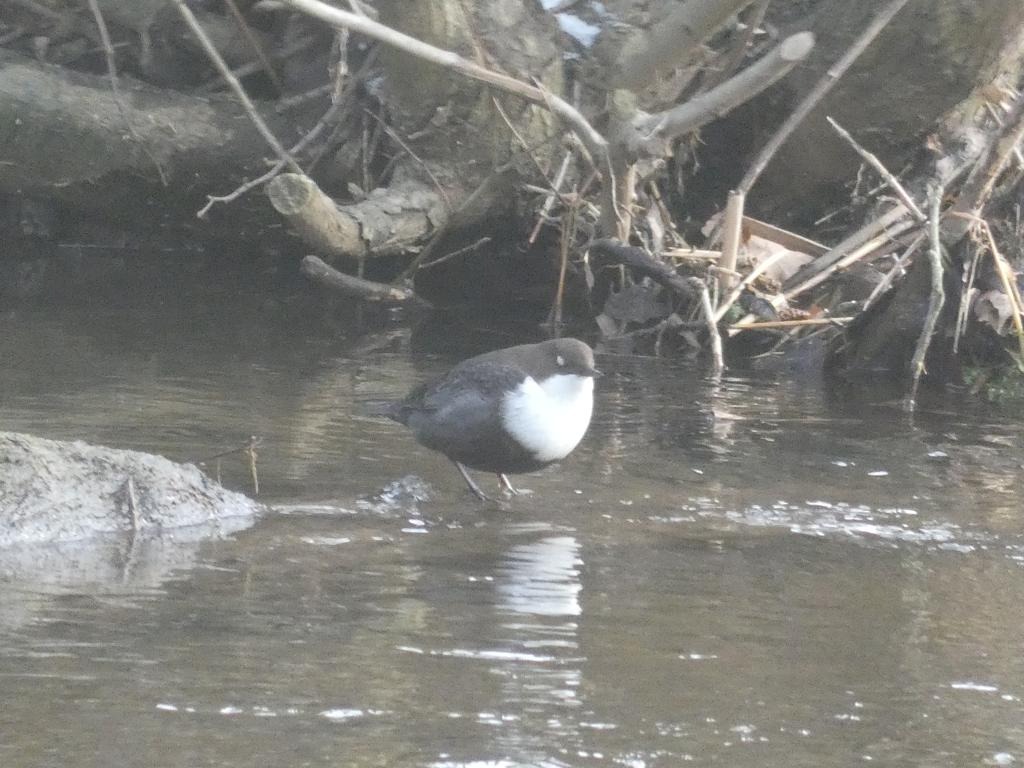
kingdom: Animalia
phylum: Chordata
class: Aves
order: Passeriformes
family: Cinclidae
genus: Cinclus
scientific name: Cinclus cinclus
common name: Vandstær
